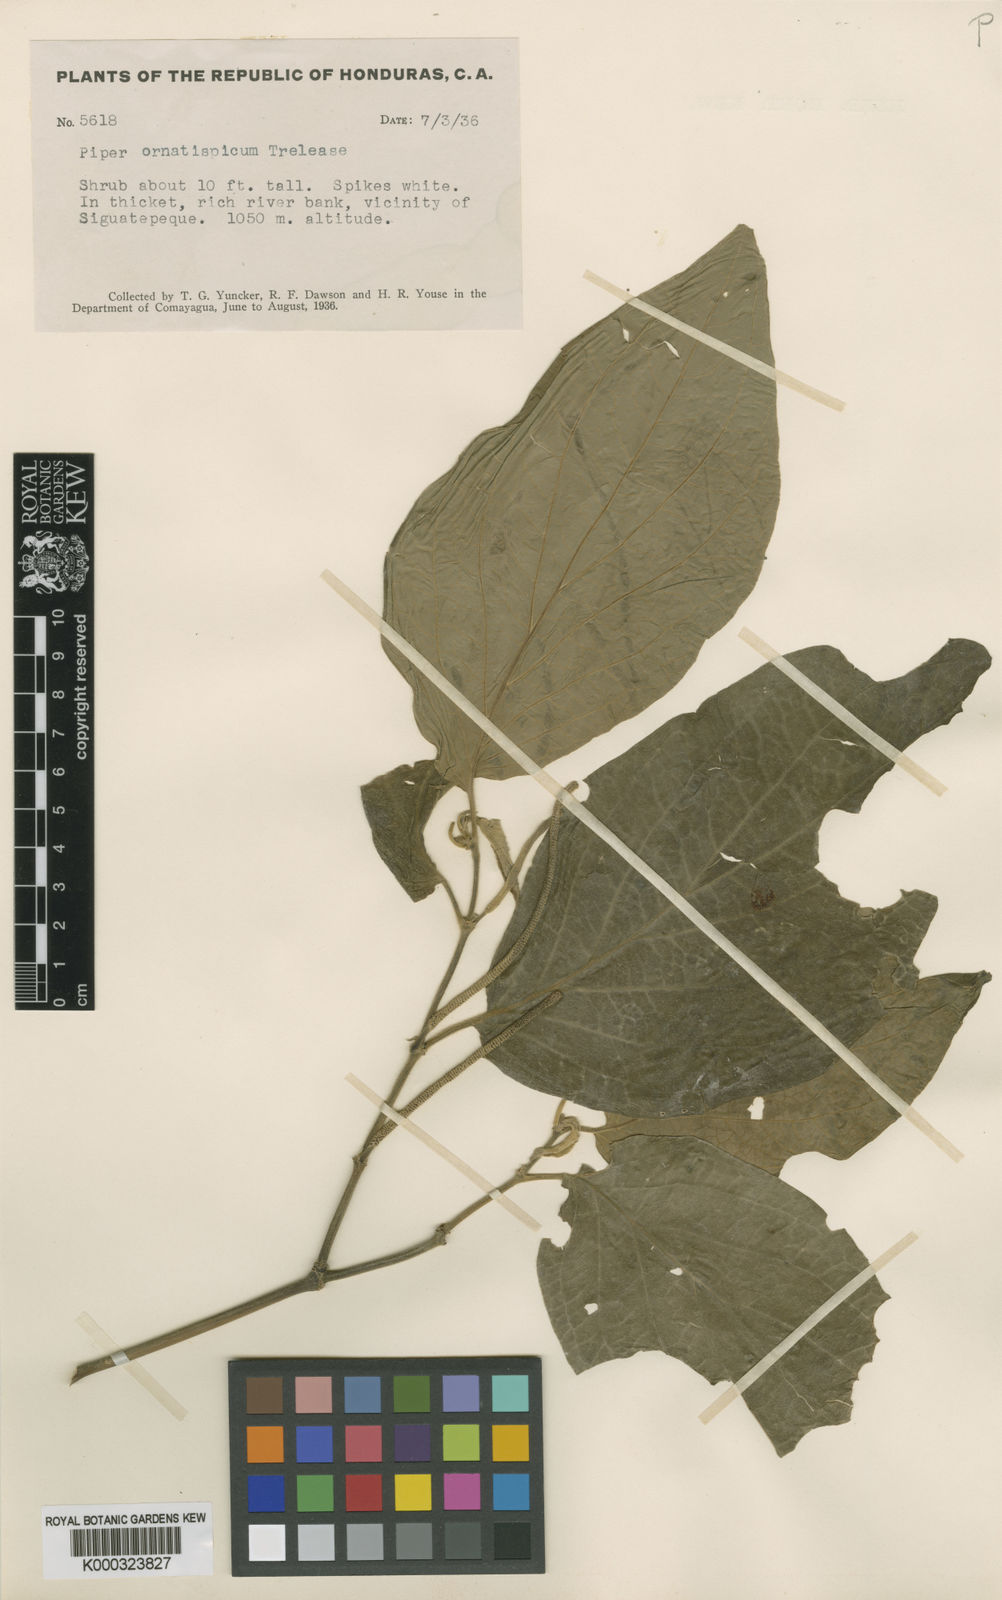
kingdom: Plantae
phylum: Tracheophyta
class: Magnoliopsida
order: Piperales
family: Piperaceae
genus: Piper
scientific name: Piper pseudofuligineum
